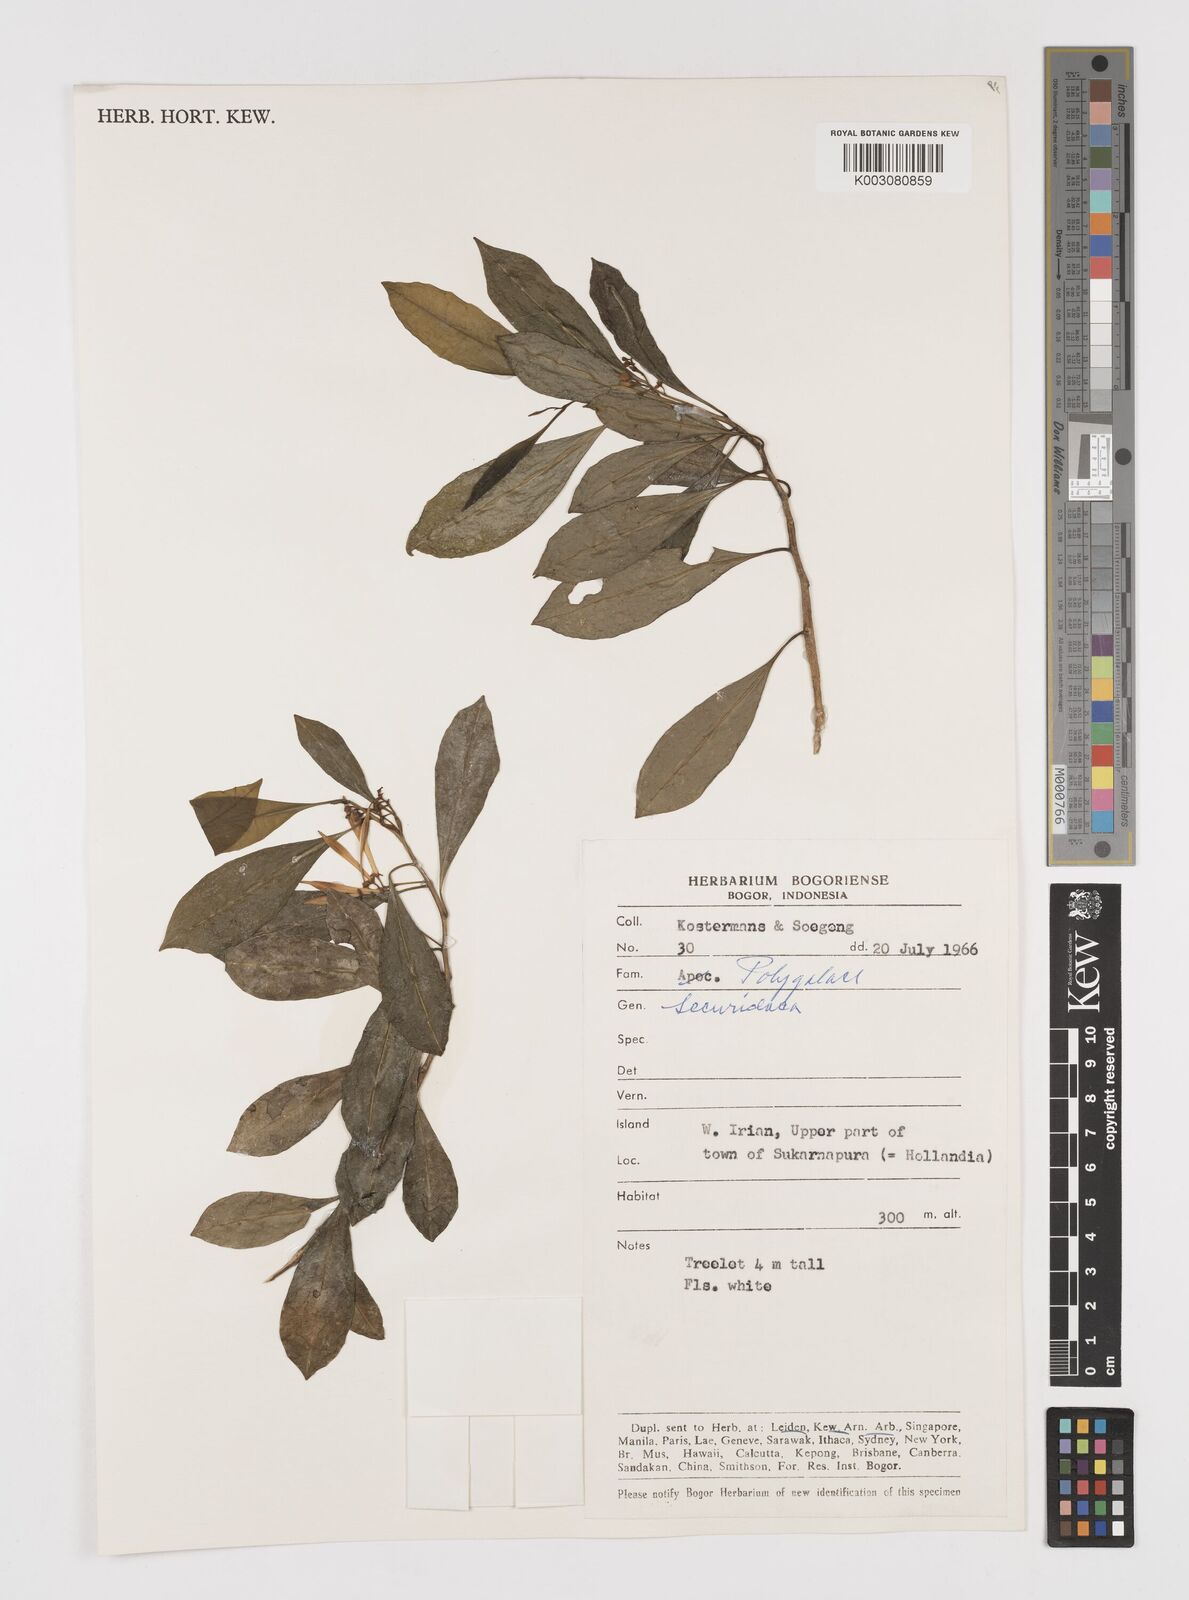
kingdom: Plantae
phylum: Tracheophyta
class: Magnoliopsida
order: Fabales
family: Polygalaceae
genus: Securidaca
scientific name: Securidaca
